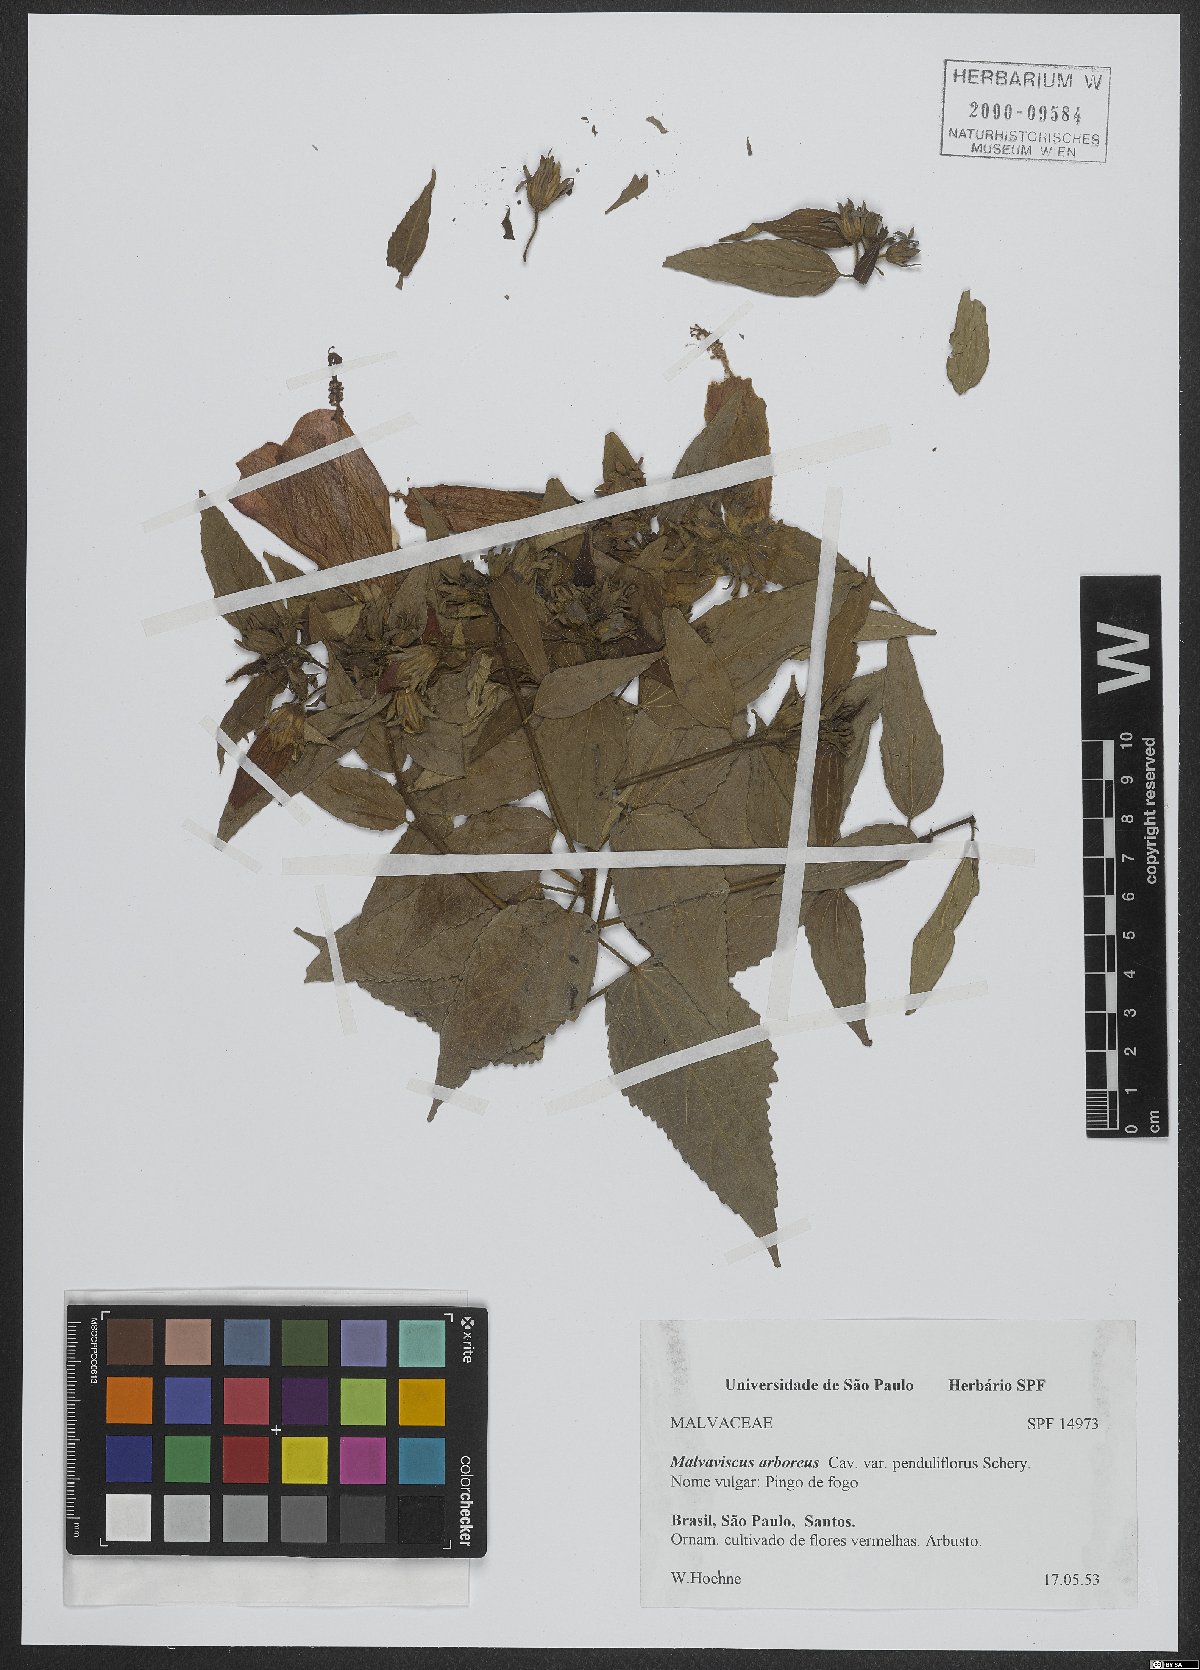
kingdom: Plantae
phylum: Tracheophyta
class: Magnoliopsida
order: Malvales
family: Malvaceae
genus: Malvaviscus
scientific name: Malvaviscus arboreus
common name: Wax mallow
